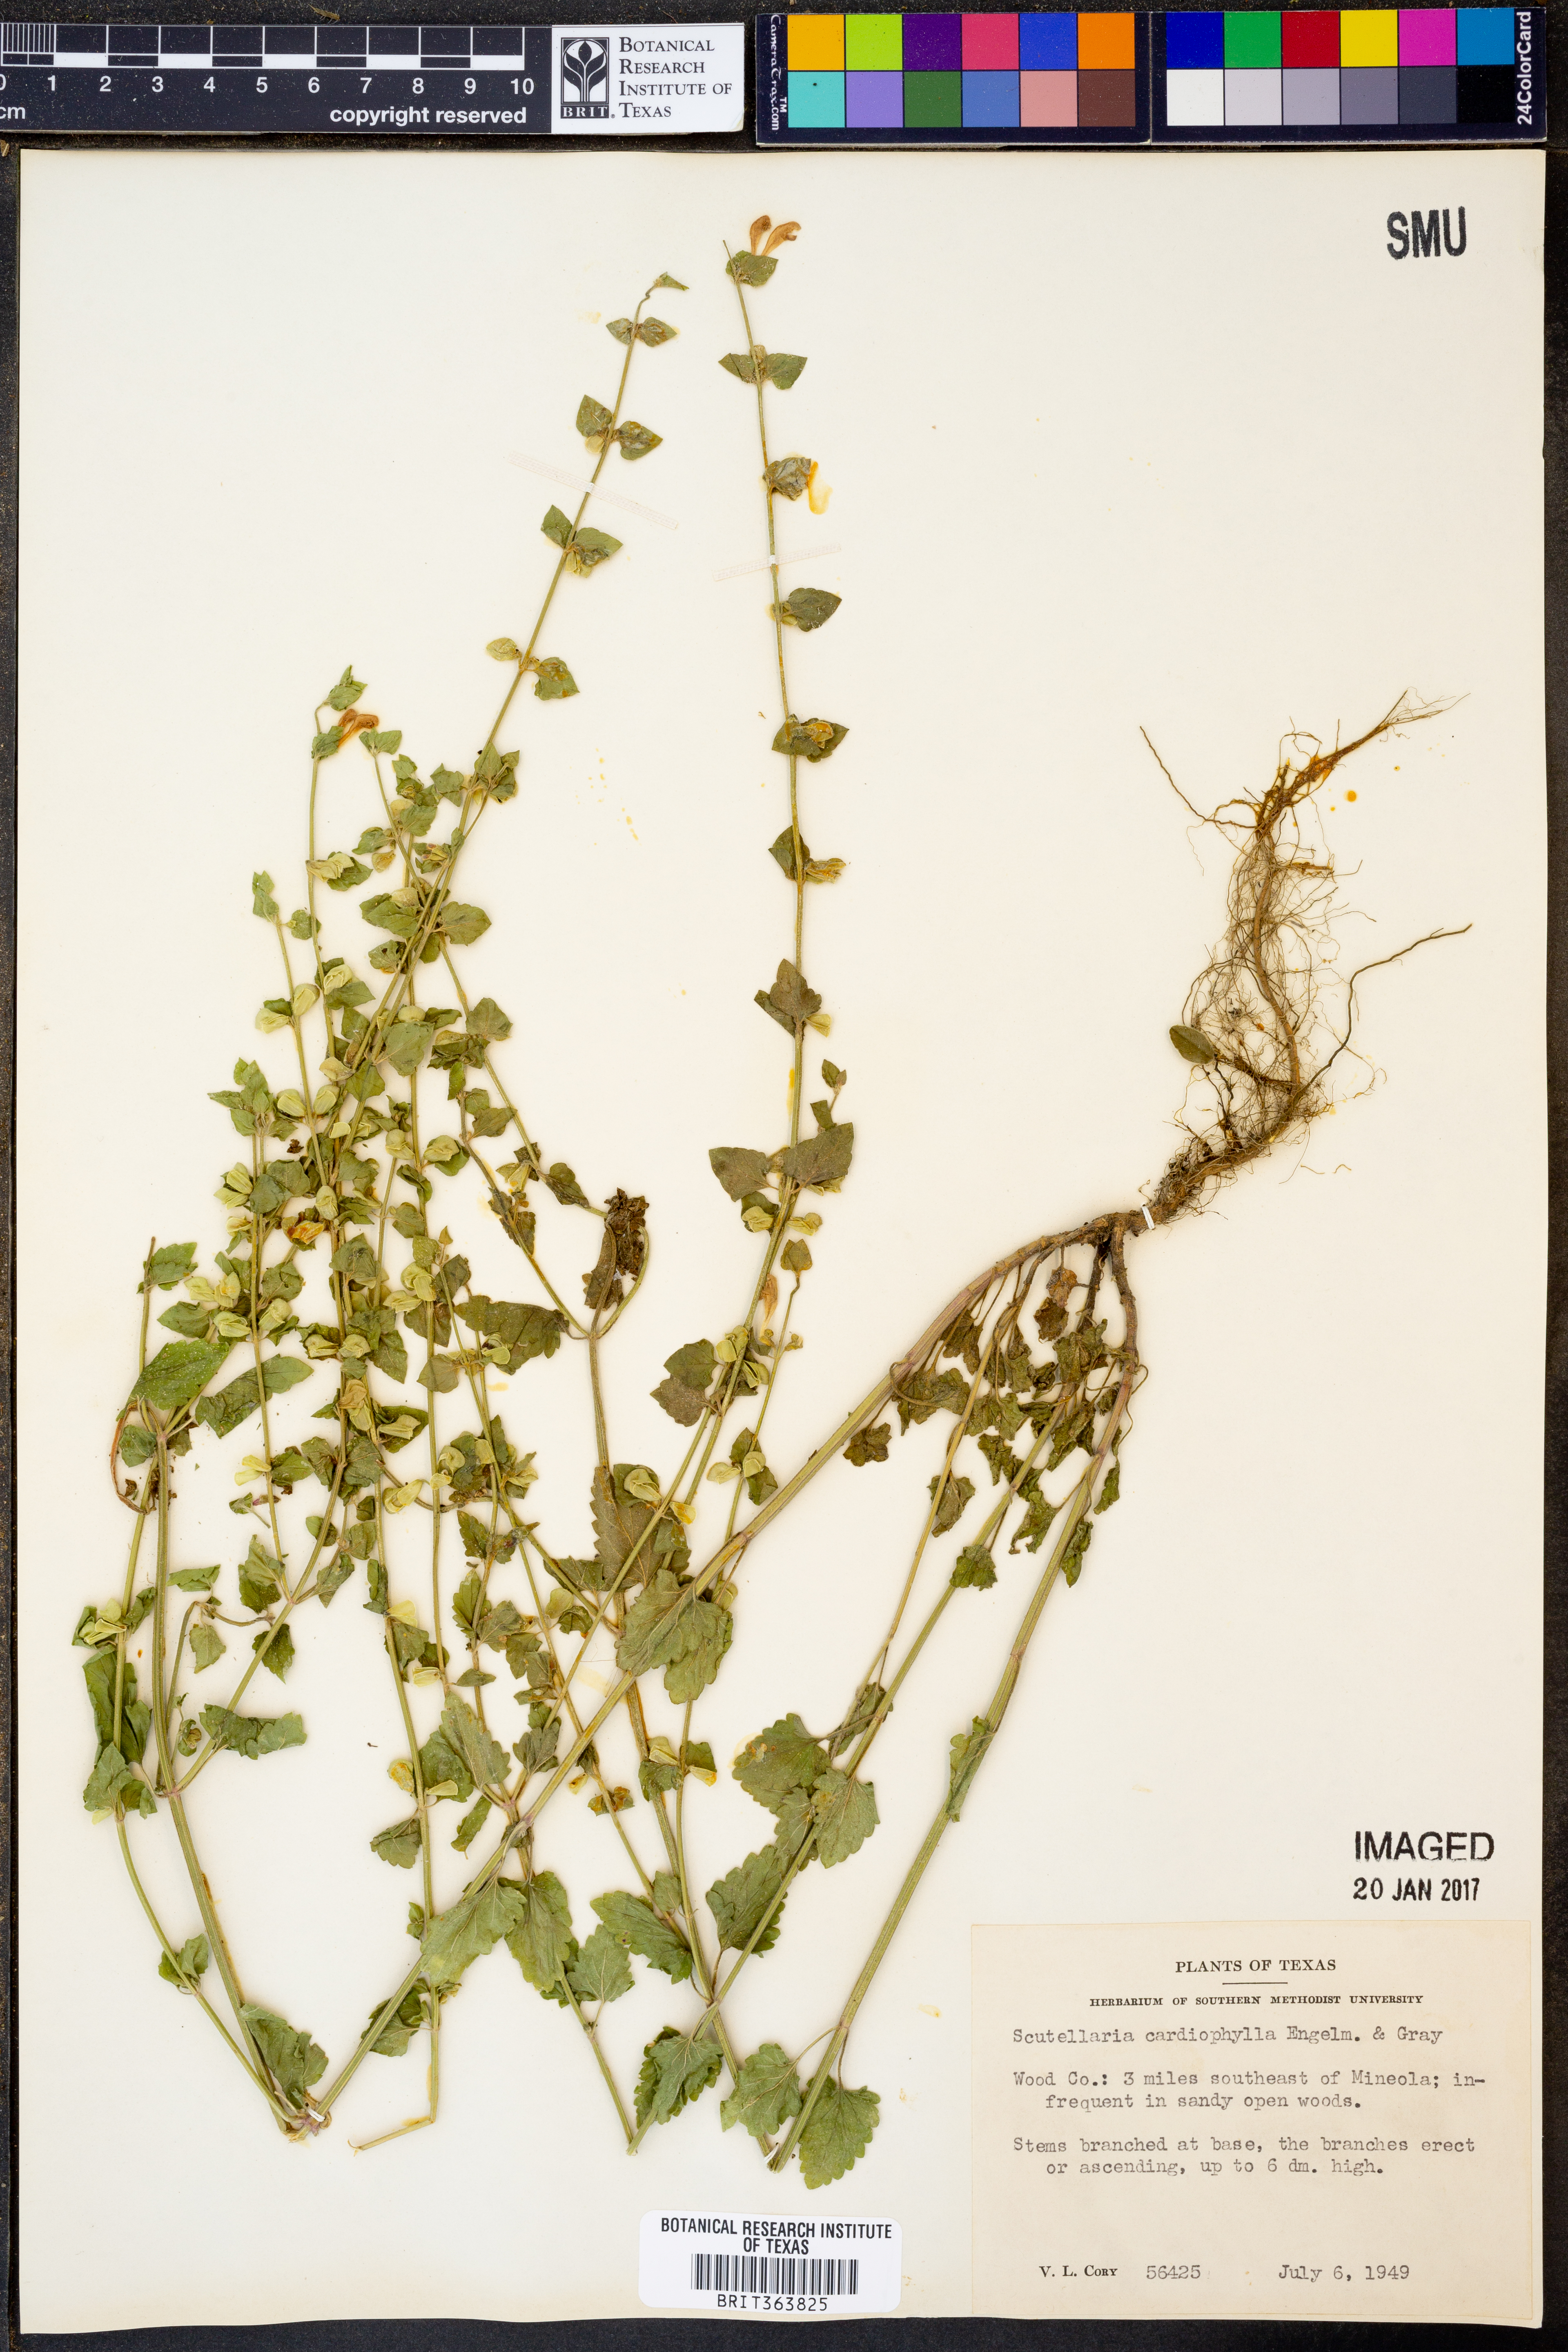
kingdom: Plantae
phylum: Tracheophyta
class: Magnoliopsida
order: Lamiales
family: Lamiaceae
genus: Scutellaria
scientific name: Scutellaria cardiophylla
